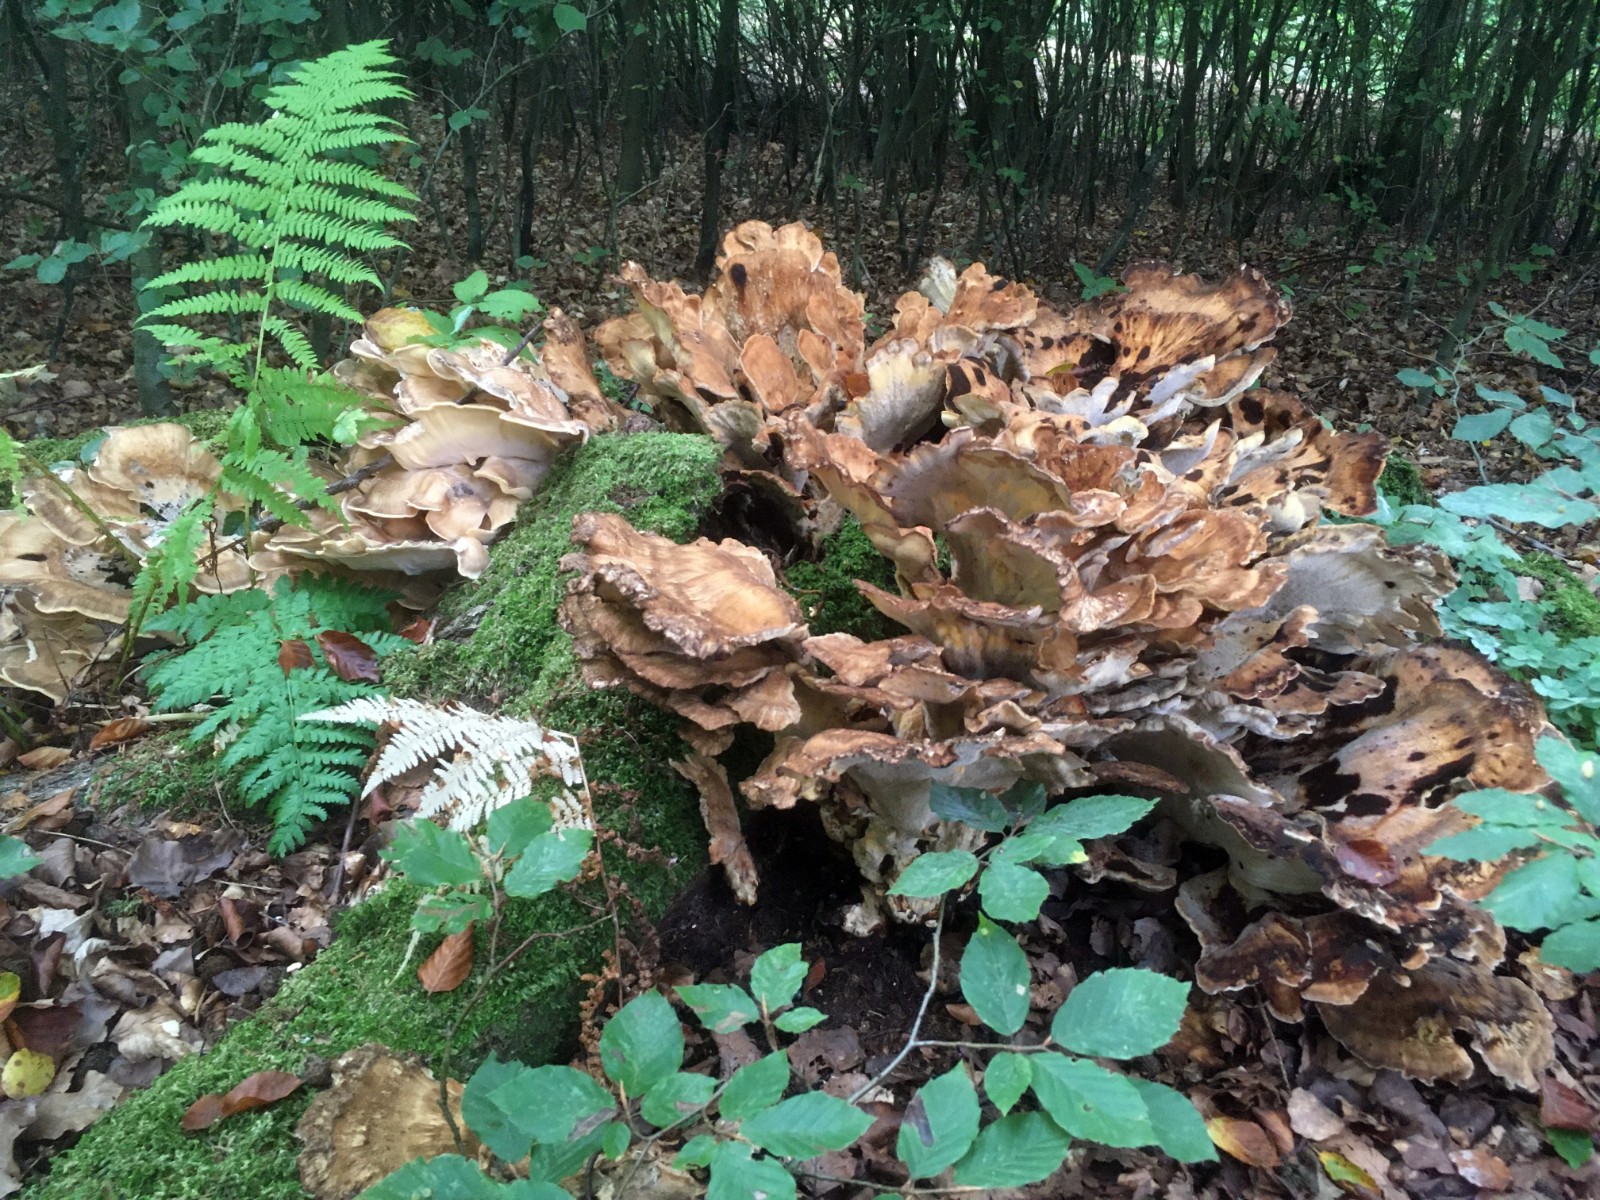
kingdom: Fungi
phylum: Basidiomycota
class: Agaricomycetes
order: Polyporales
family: Meripilaceae
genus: Meripilus
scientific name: Meripilus giganteus
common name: kæmpeporesvamp
